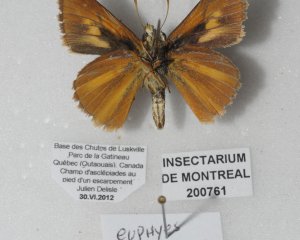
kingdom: Animalia
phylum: Arthropoda
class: Insecta
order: Lepidoptera
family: Hesperiidae
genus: Euphyes
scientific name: Euphyes dion
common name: Dion Skipper
